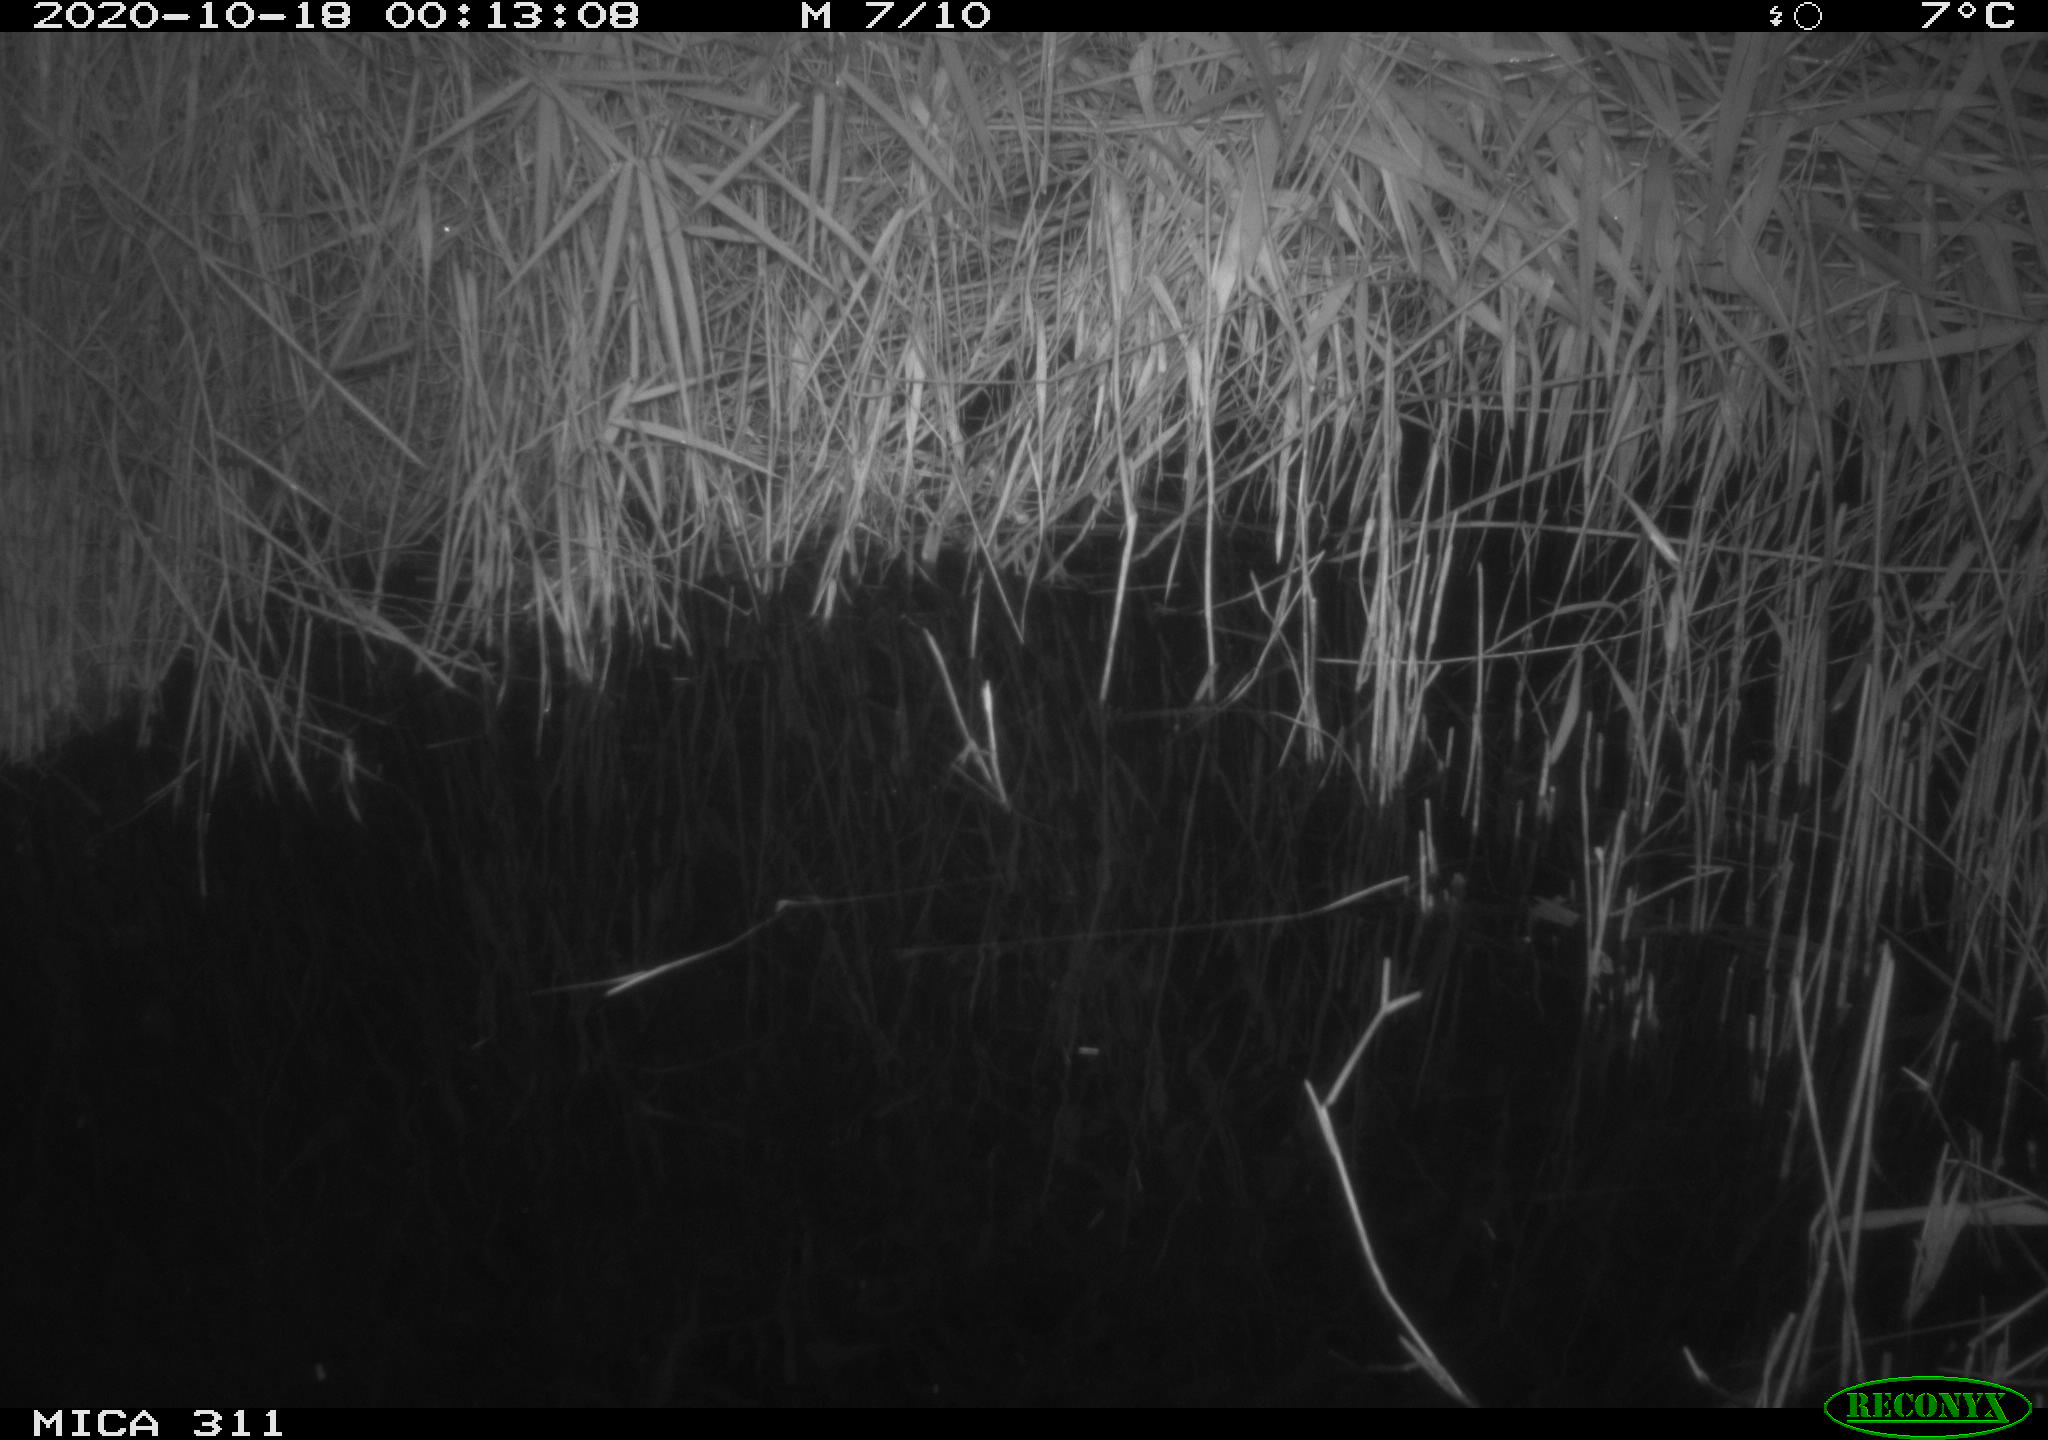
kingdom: Animalia
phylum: Chordata
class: Mammalia
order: Rodentia
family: Cricetidae
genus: Ondatra
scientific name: Ondatra zibethicus
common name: Muskrat
